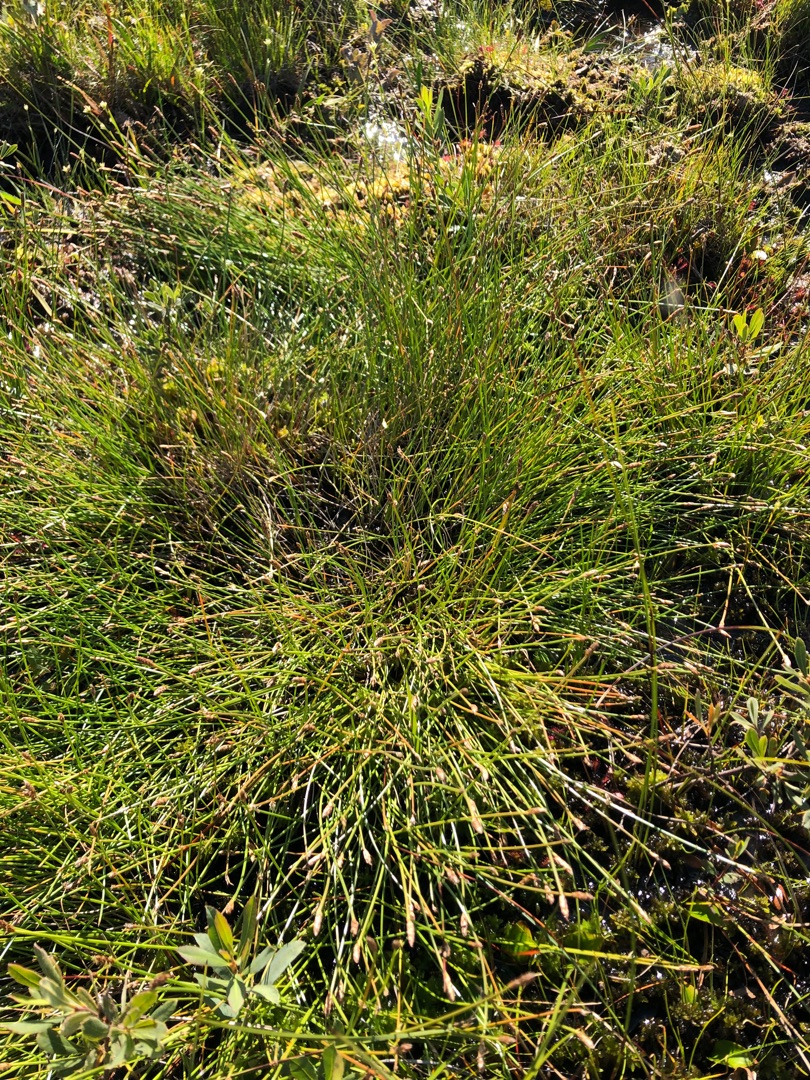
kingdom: Plantae
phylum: Tracheophyta
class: Liliopsida
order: Poales
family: Cyperaceae
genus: Eleocharis
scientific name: Eleocharis multicaulis
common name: Mangestænglet sumpstrå
